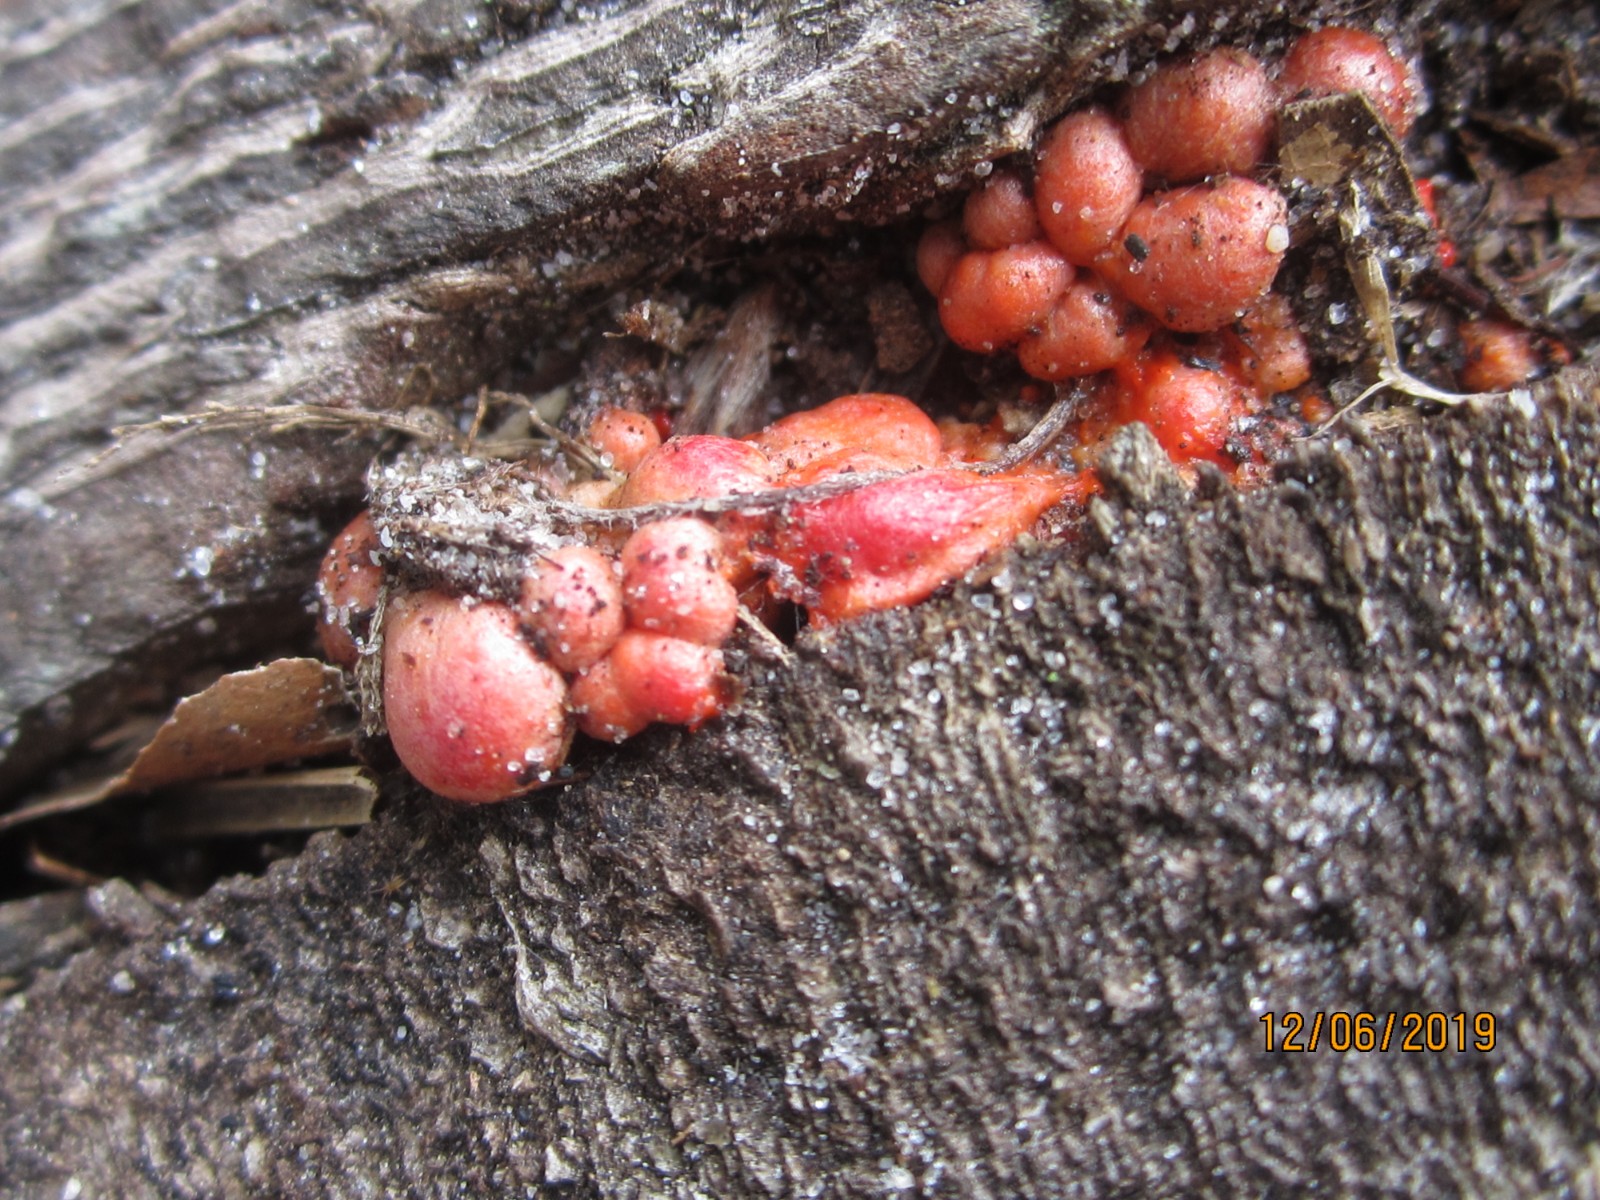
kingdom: Protozoa
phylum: Mycetozoa
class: Myxomycetes
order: Cribrariales
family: Tubiferaceae
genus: Lycogala
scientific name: Lycogala epidendrum
